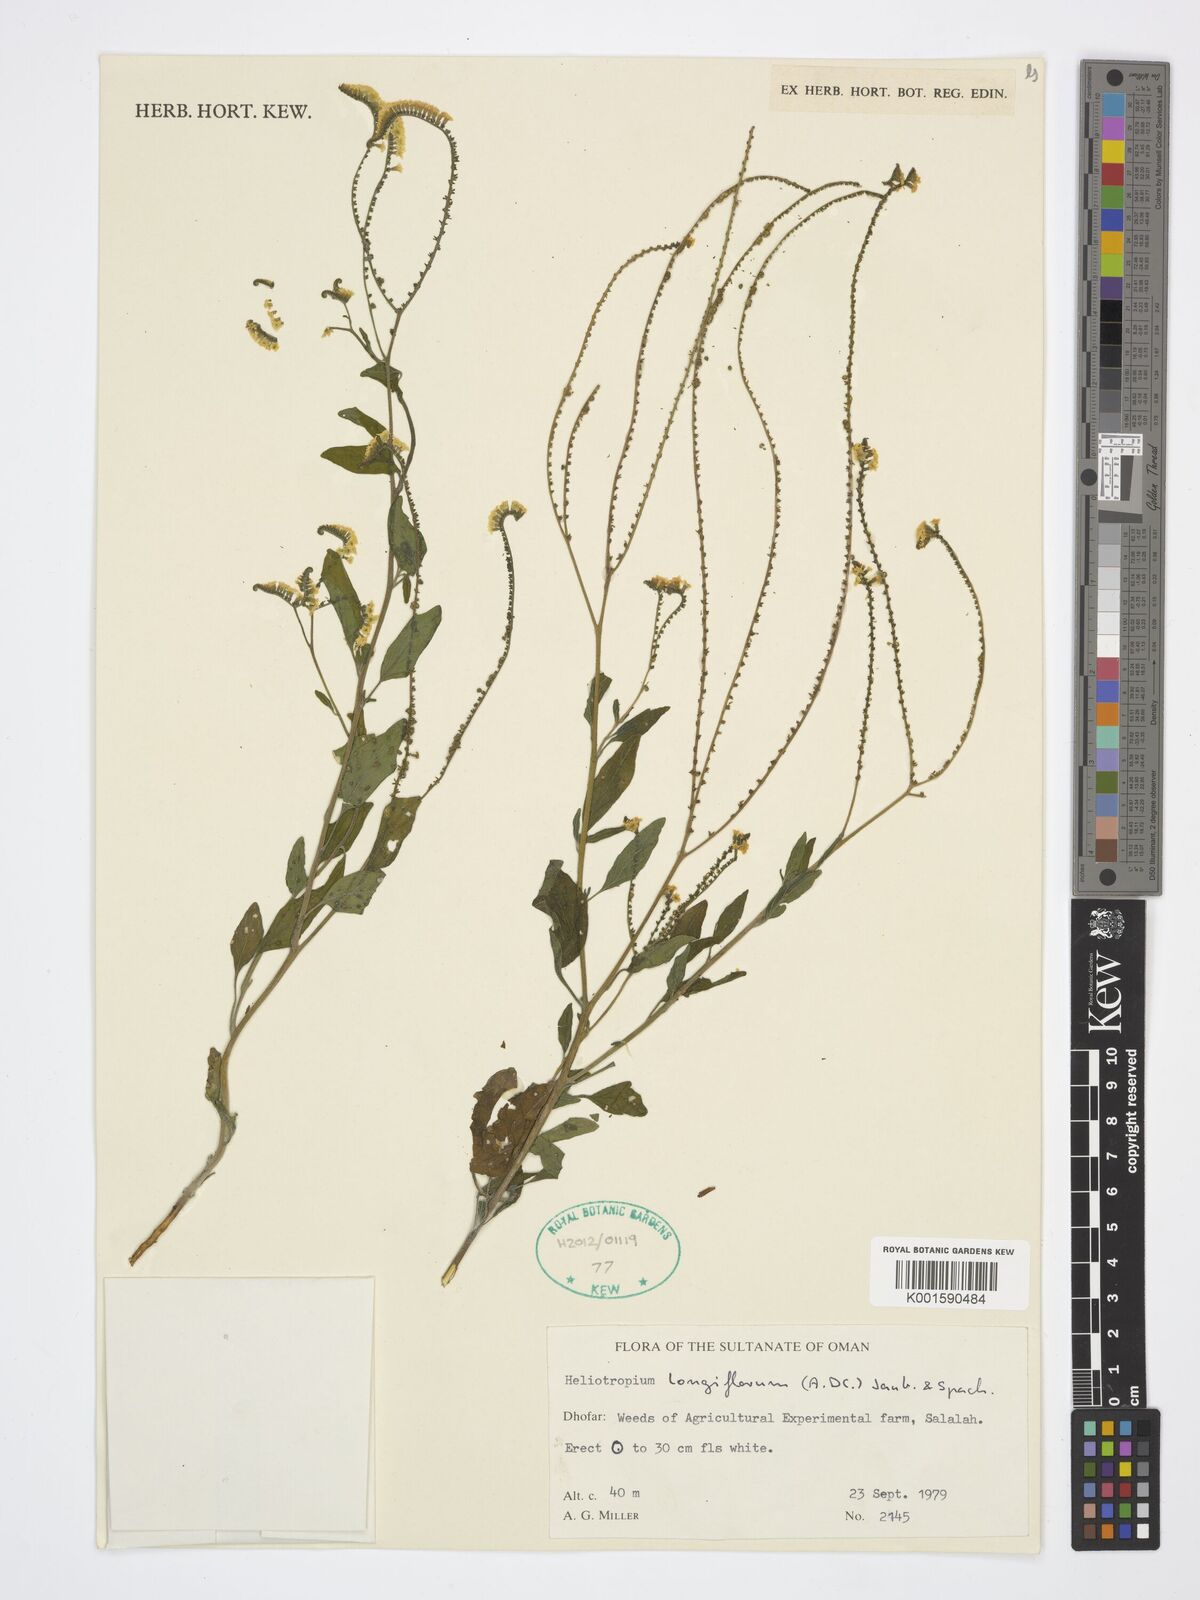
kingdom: Plantae
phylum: Tracheophyta
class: Magnoliopsida
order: Boraginales
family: Heliotropiaceae
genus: Heliotropium
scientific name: Heliotropium longiflorum
